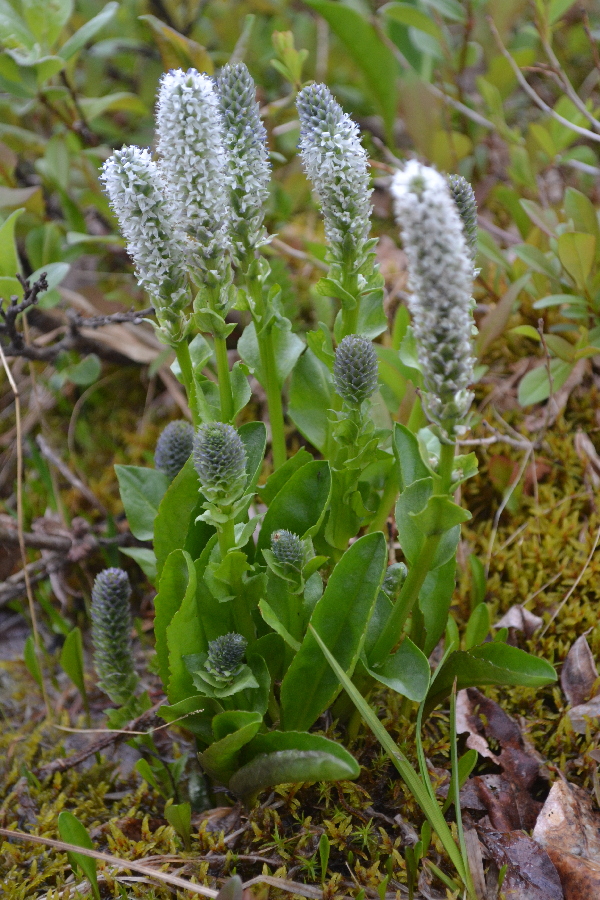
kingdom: Plantae
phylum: Tracheophyta
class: Magnoliopsida
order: Lamiales
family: Plantaginaceae
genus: Lagotis
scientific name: Lagotis glauca
